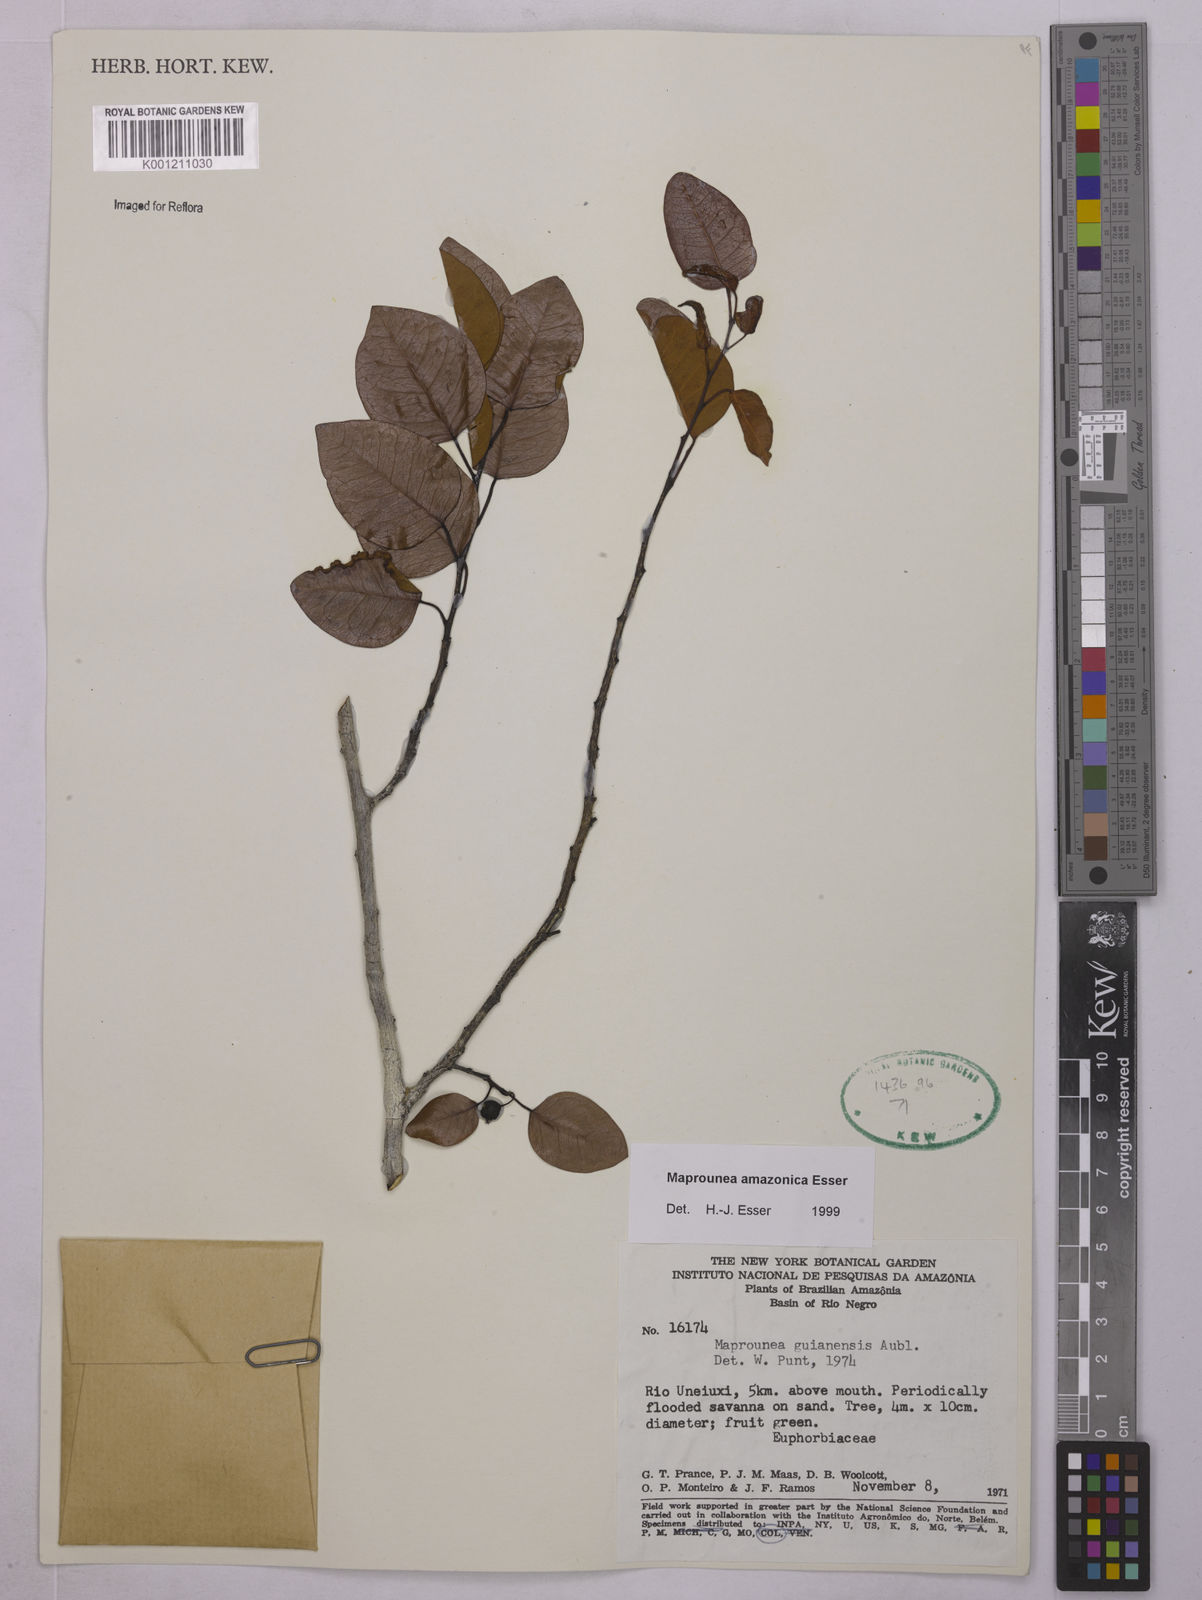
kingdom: Plantae
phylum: Tracheophyta
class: Magnoliopsida
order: Malpighiales
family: Euphorbiaceae
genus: Maprounea
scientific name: Maprounea amazonica
